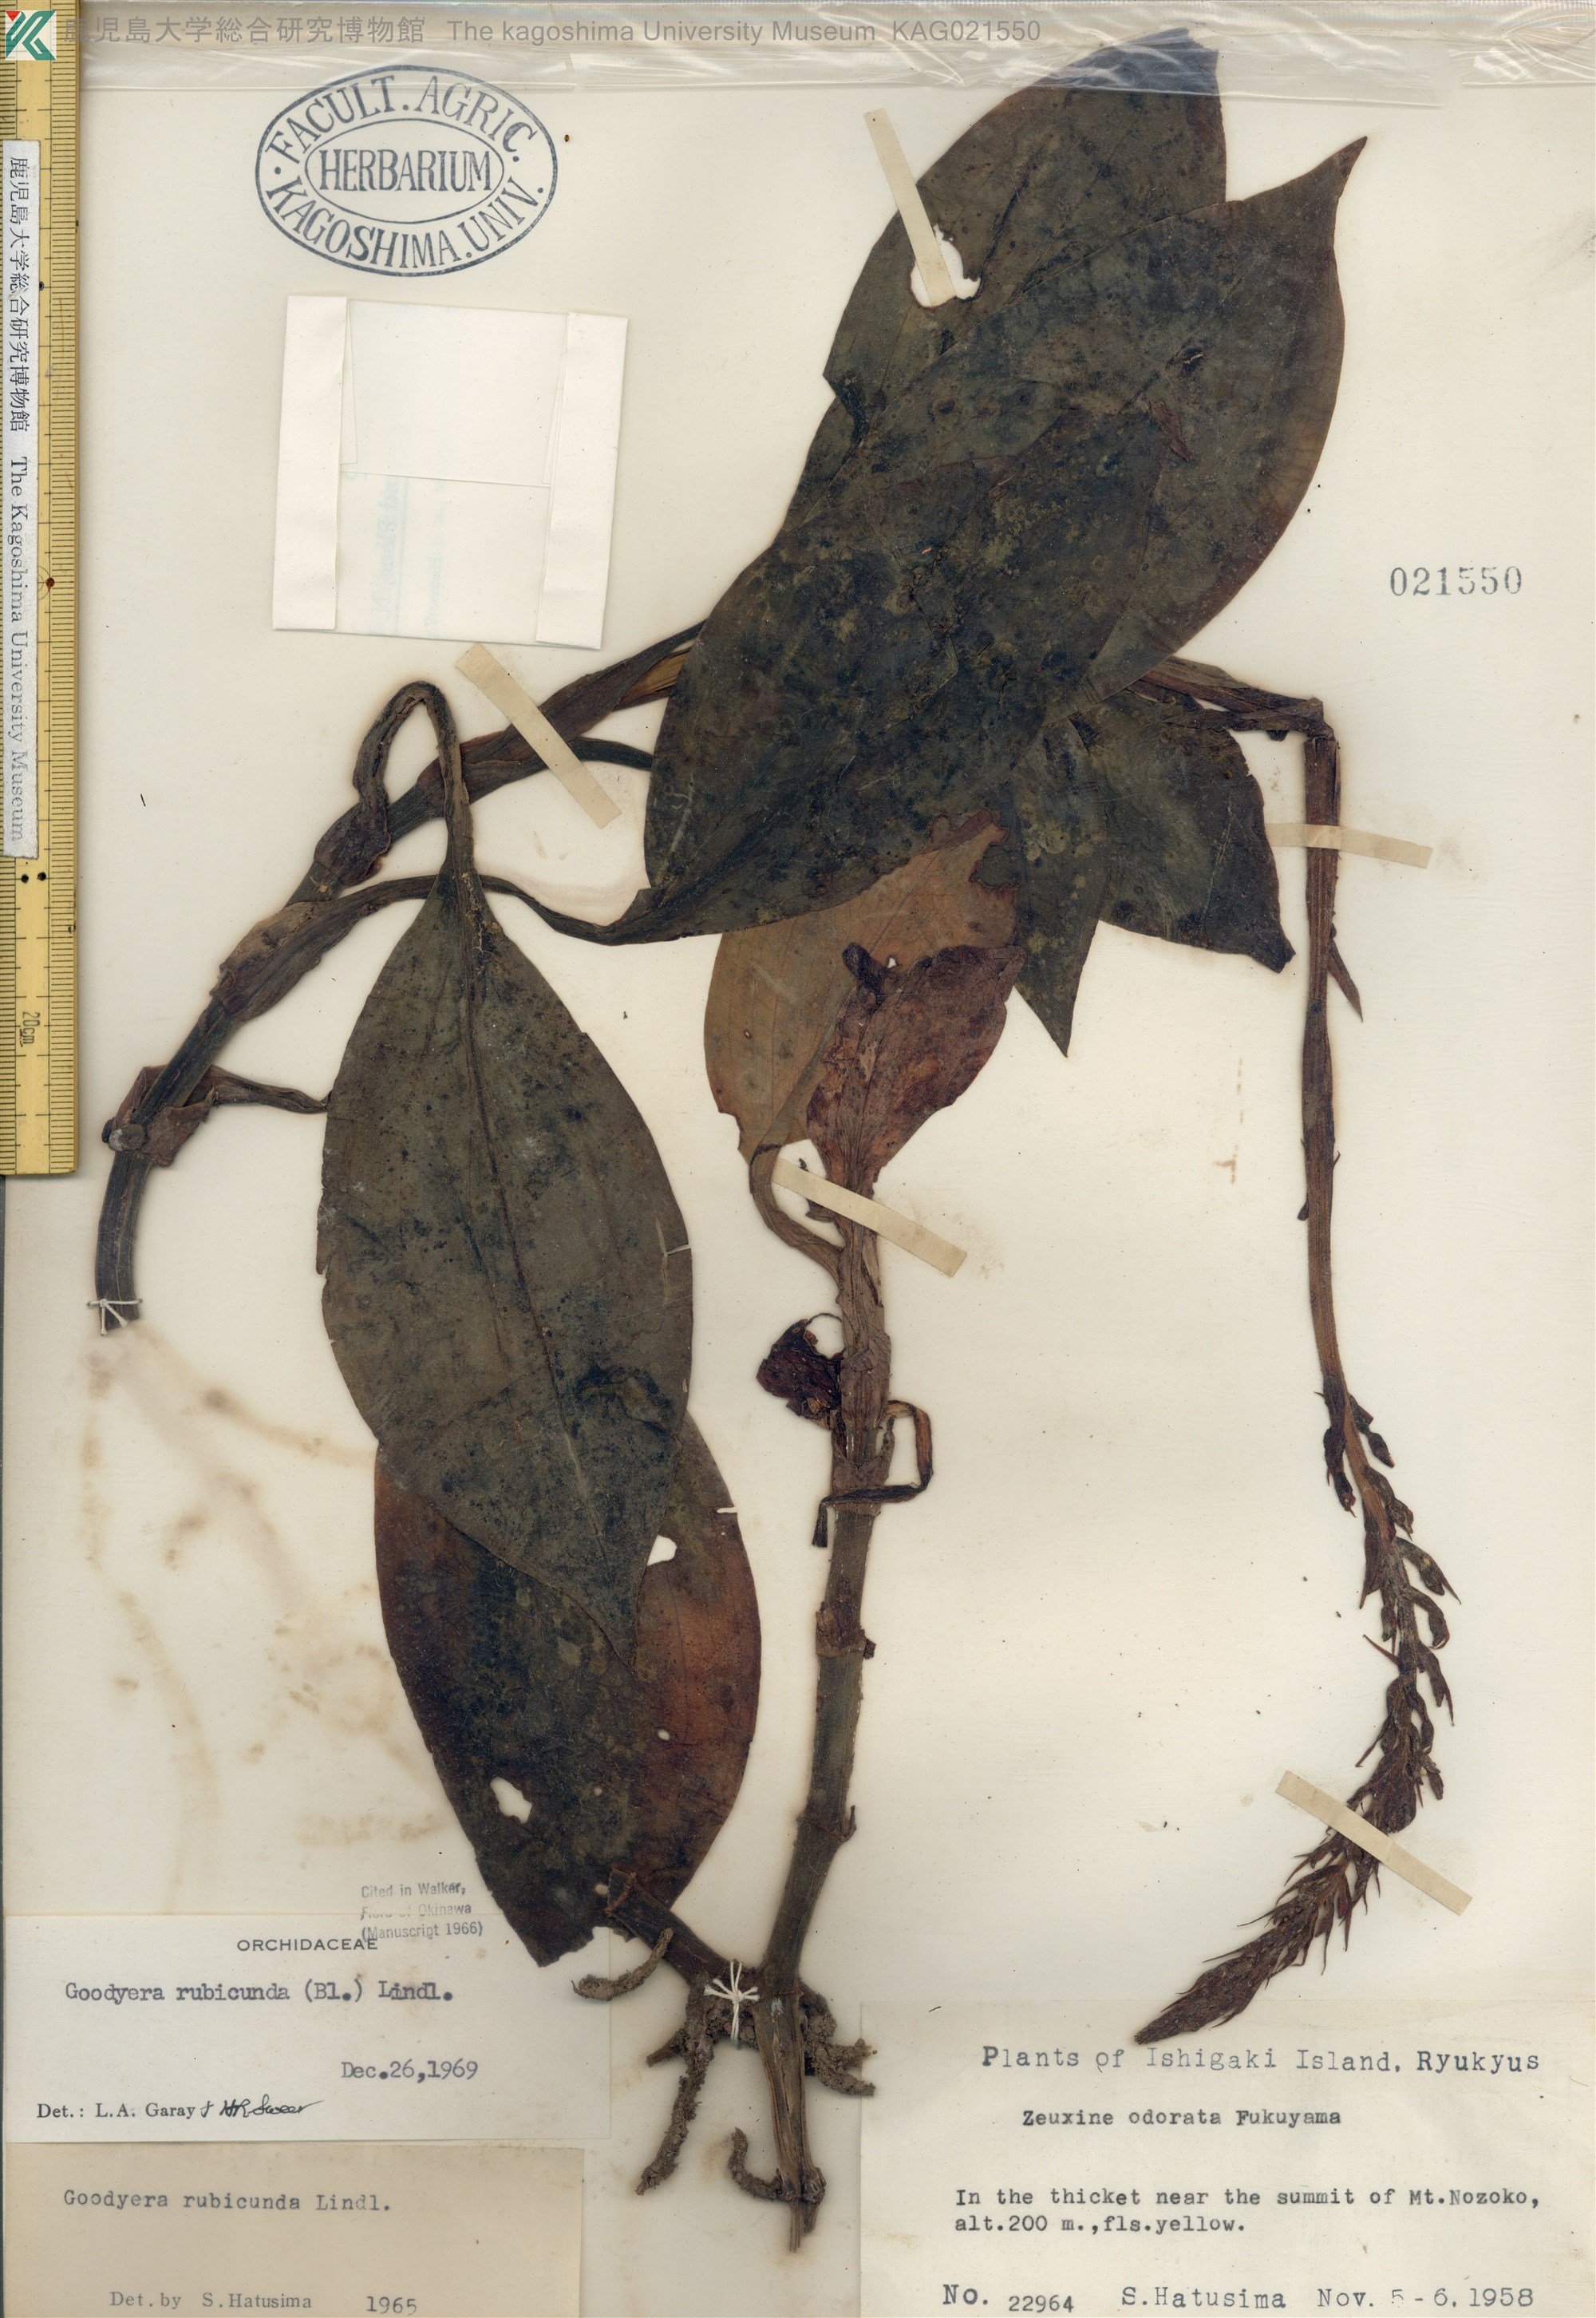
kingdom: Plantae
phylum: Tracheophyta
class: Liliopsida
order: Asparagales
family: Orchidaceae
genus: Goodyera
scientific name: Goodyera rubicunda
